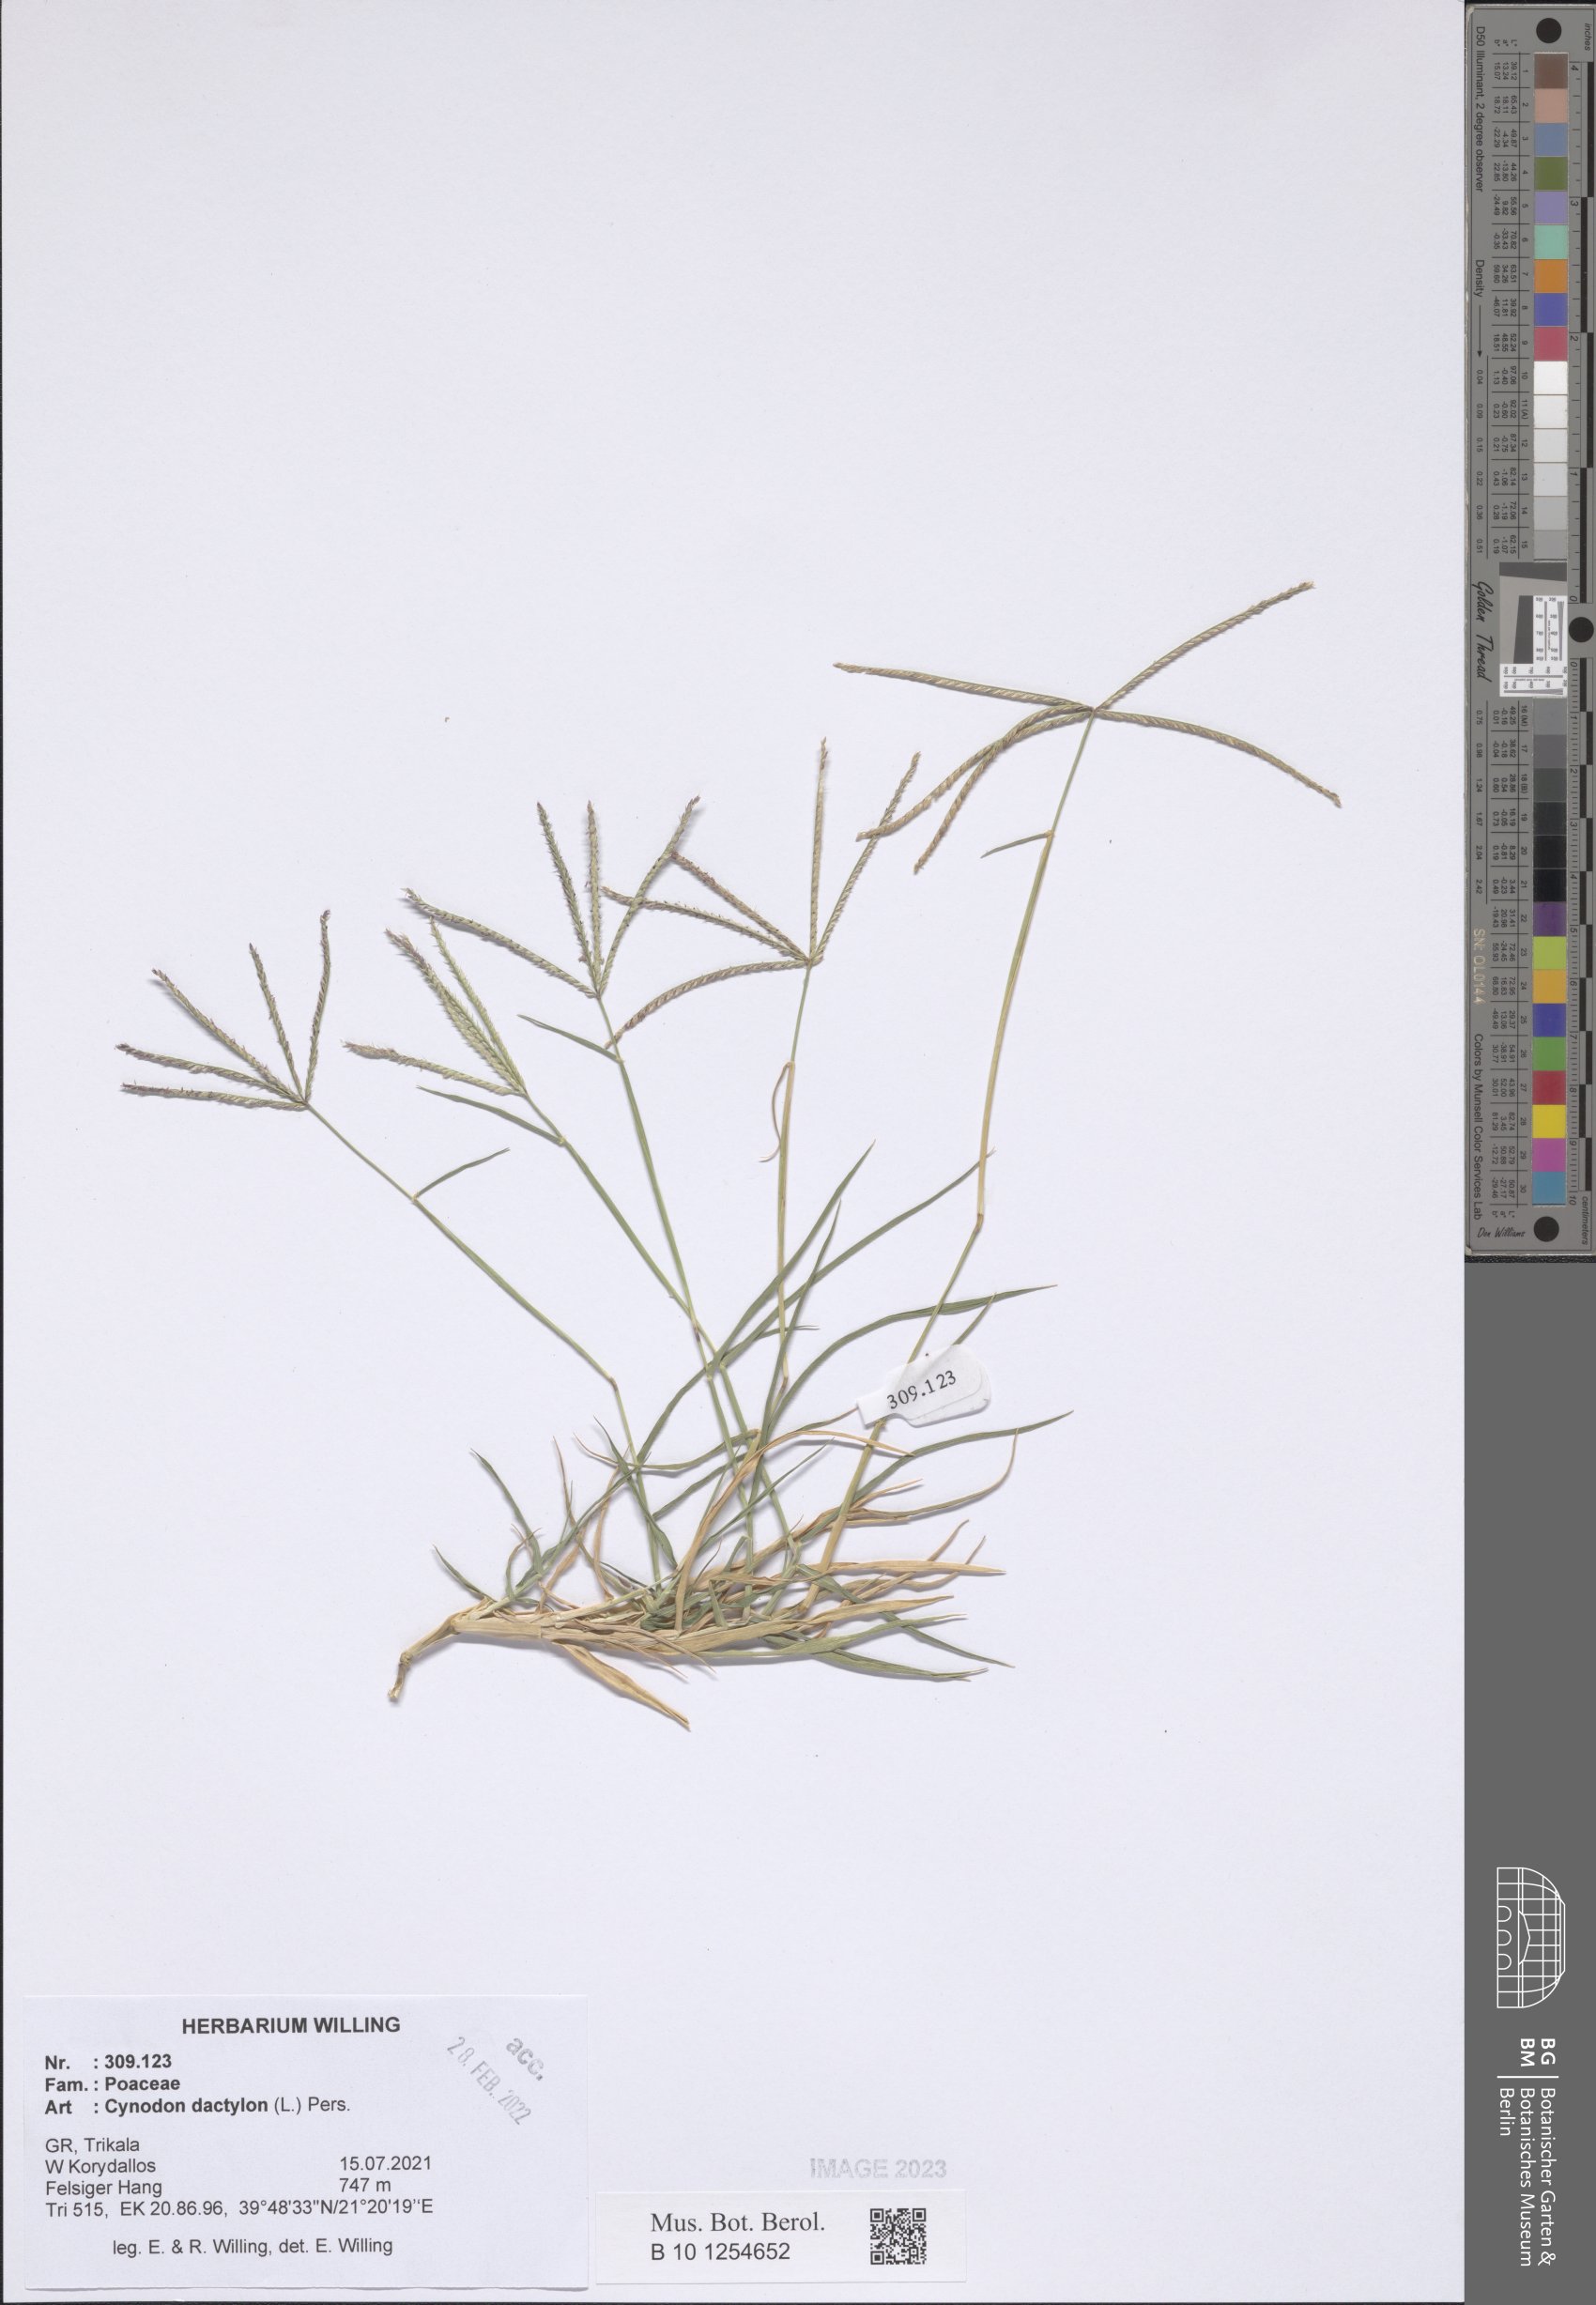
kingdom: Plantae
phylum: Tracheophyta
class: Liliopsida
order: Poales
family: Poaceae
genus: Cynodon
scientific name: Cynodon dactylon
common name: Bermuda grass
